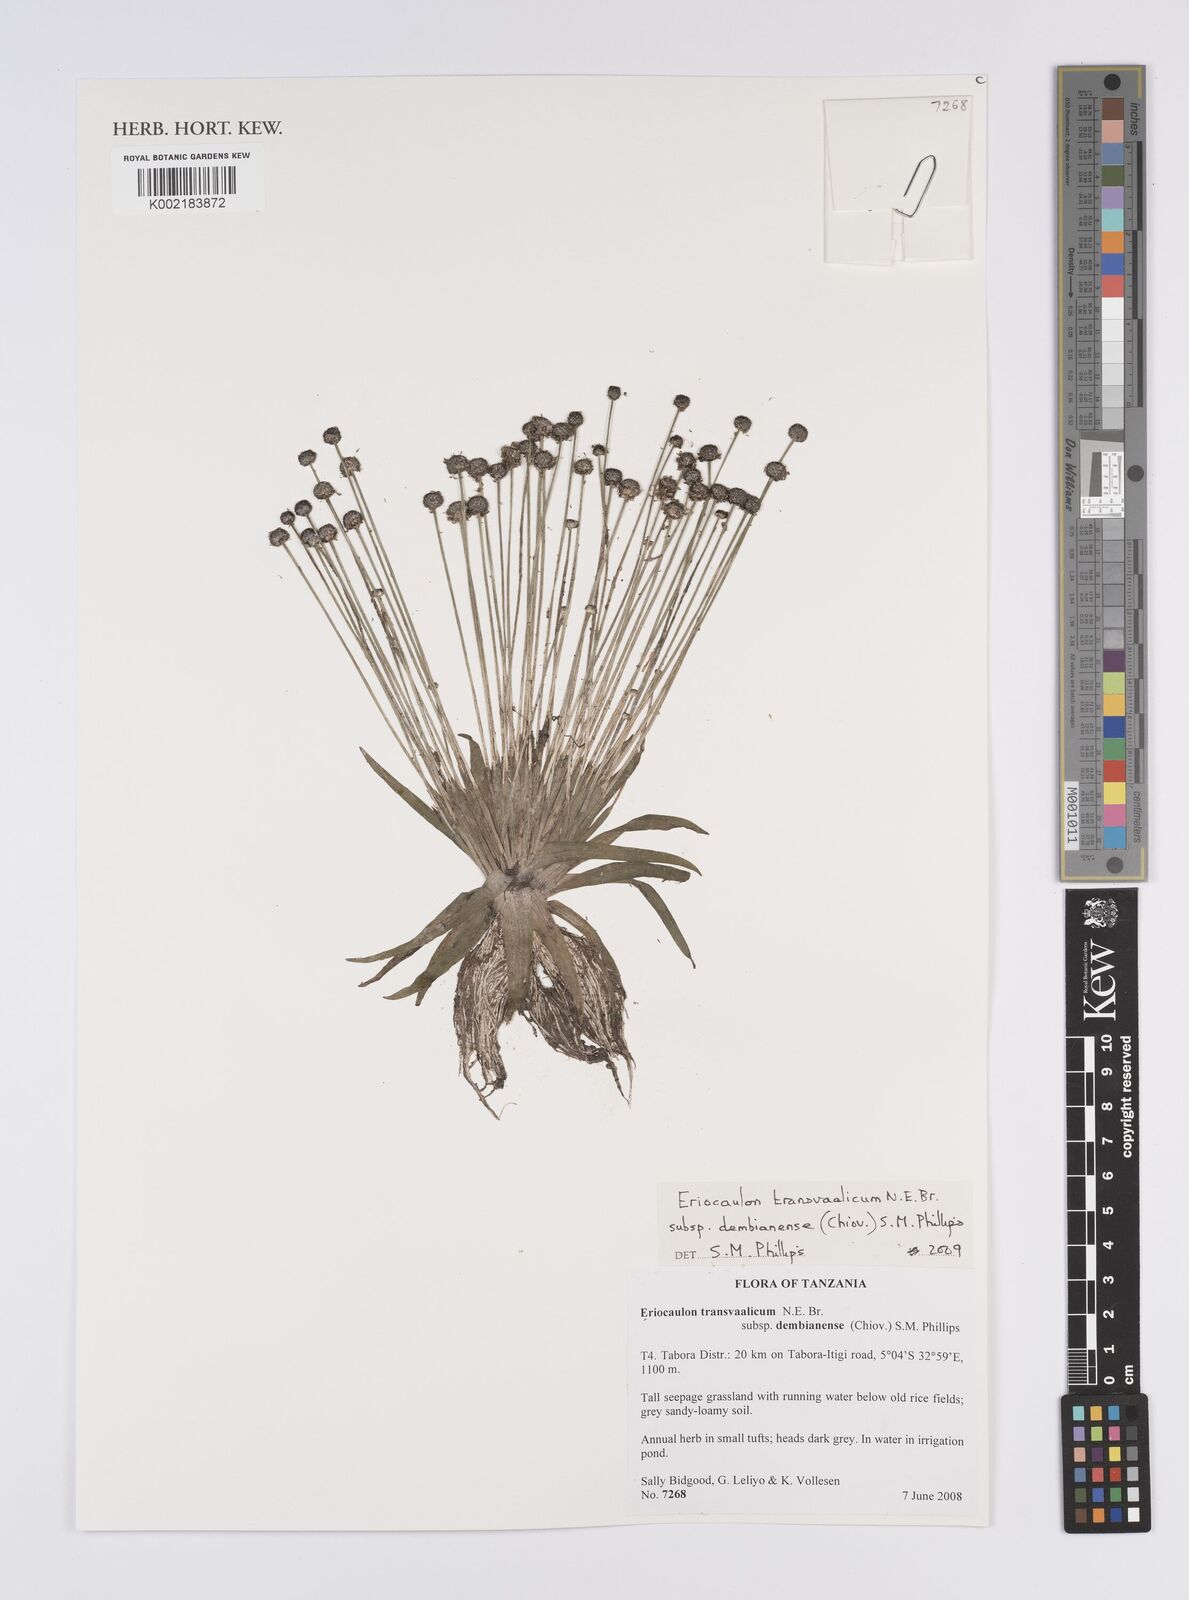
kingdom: Plantae
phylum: Tracheophyta
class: Liliopsida
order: Poales
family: Eriocaulaceae
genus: Eriocaulon
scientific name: Eriocaulon transvaalicum
